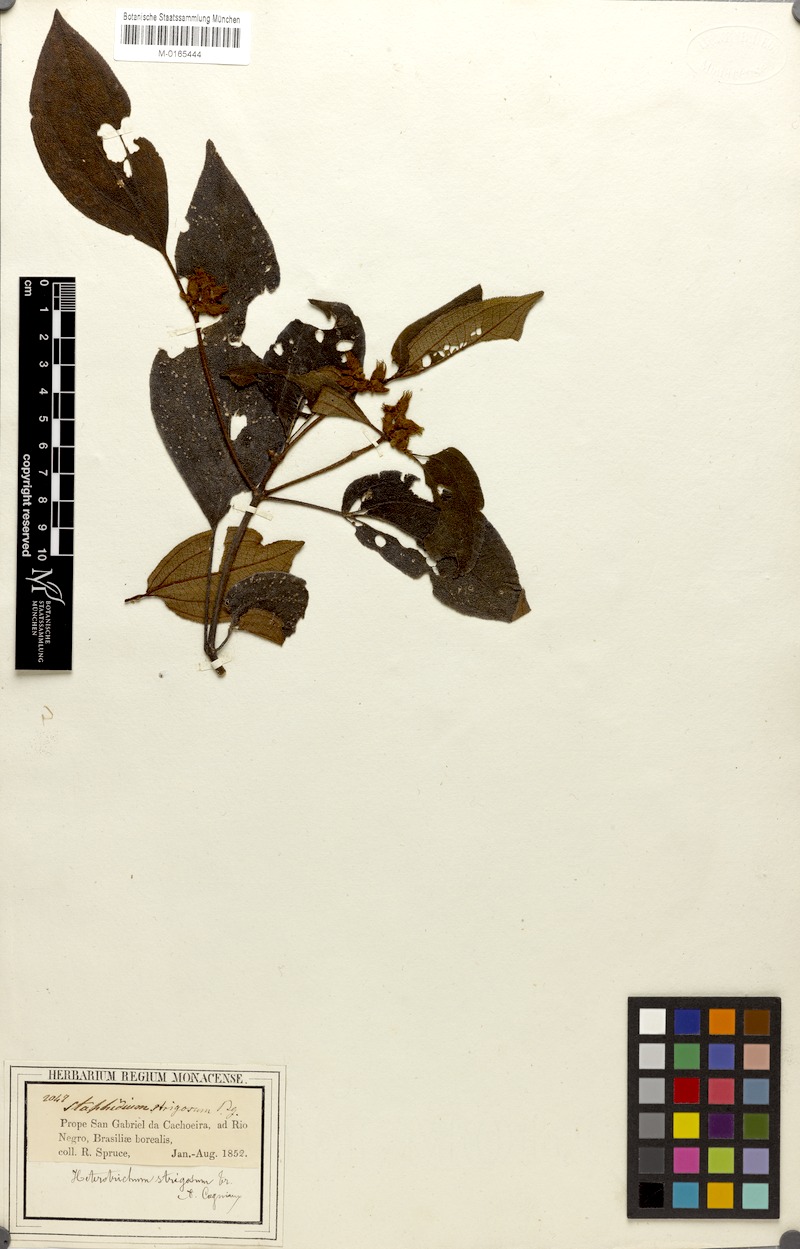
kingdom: Plantae
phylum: Tracheophyta
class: Magnoliopsida
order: Myrtales
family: Melastomataceae
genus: Miconia
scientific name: Miconia strigosa
